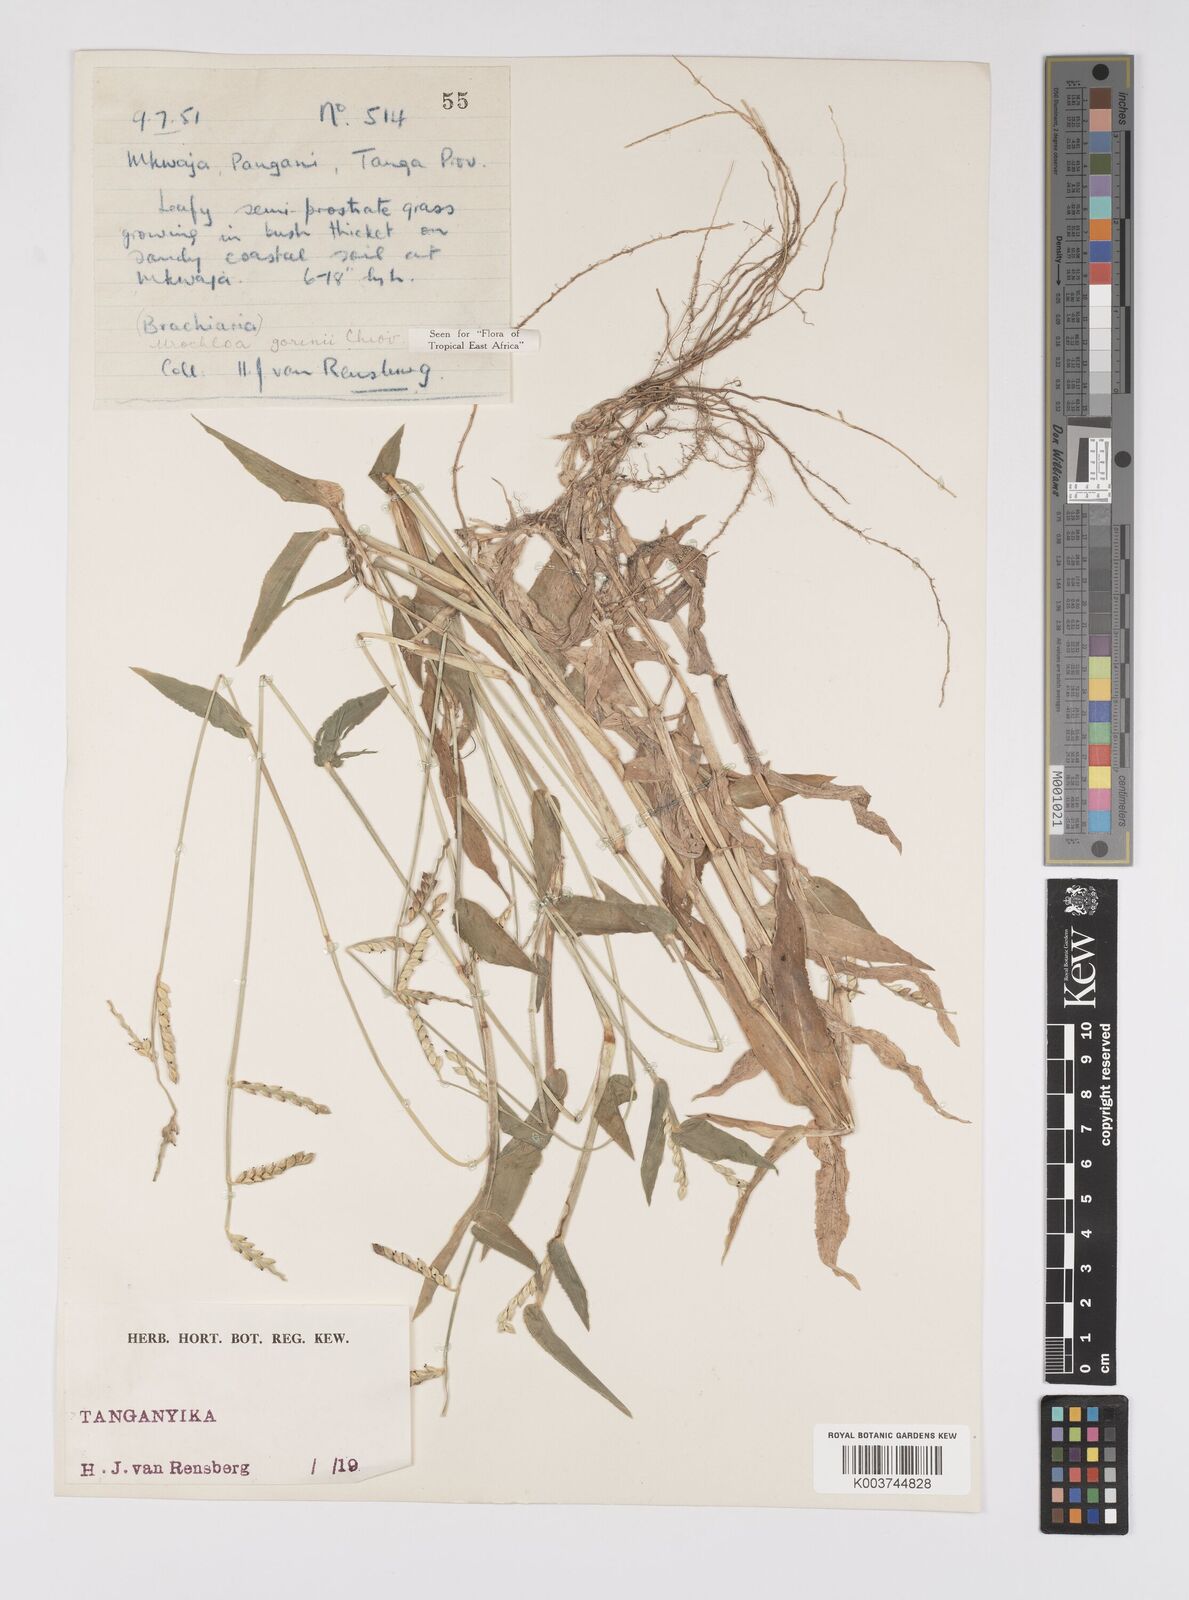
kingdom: Plantae
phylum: Tracheophyta
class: Liliopsida
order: Poales
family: Poaceae
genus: Urochloa
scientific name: Urochloa rudis
